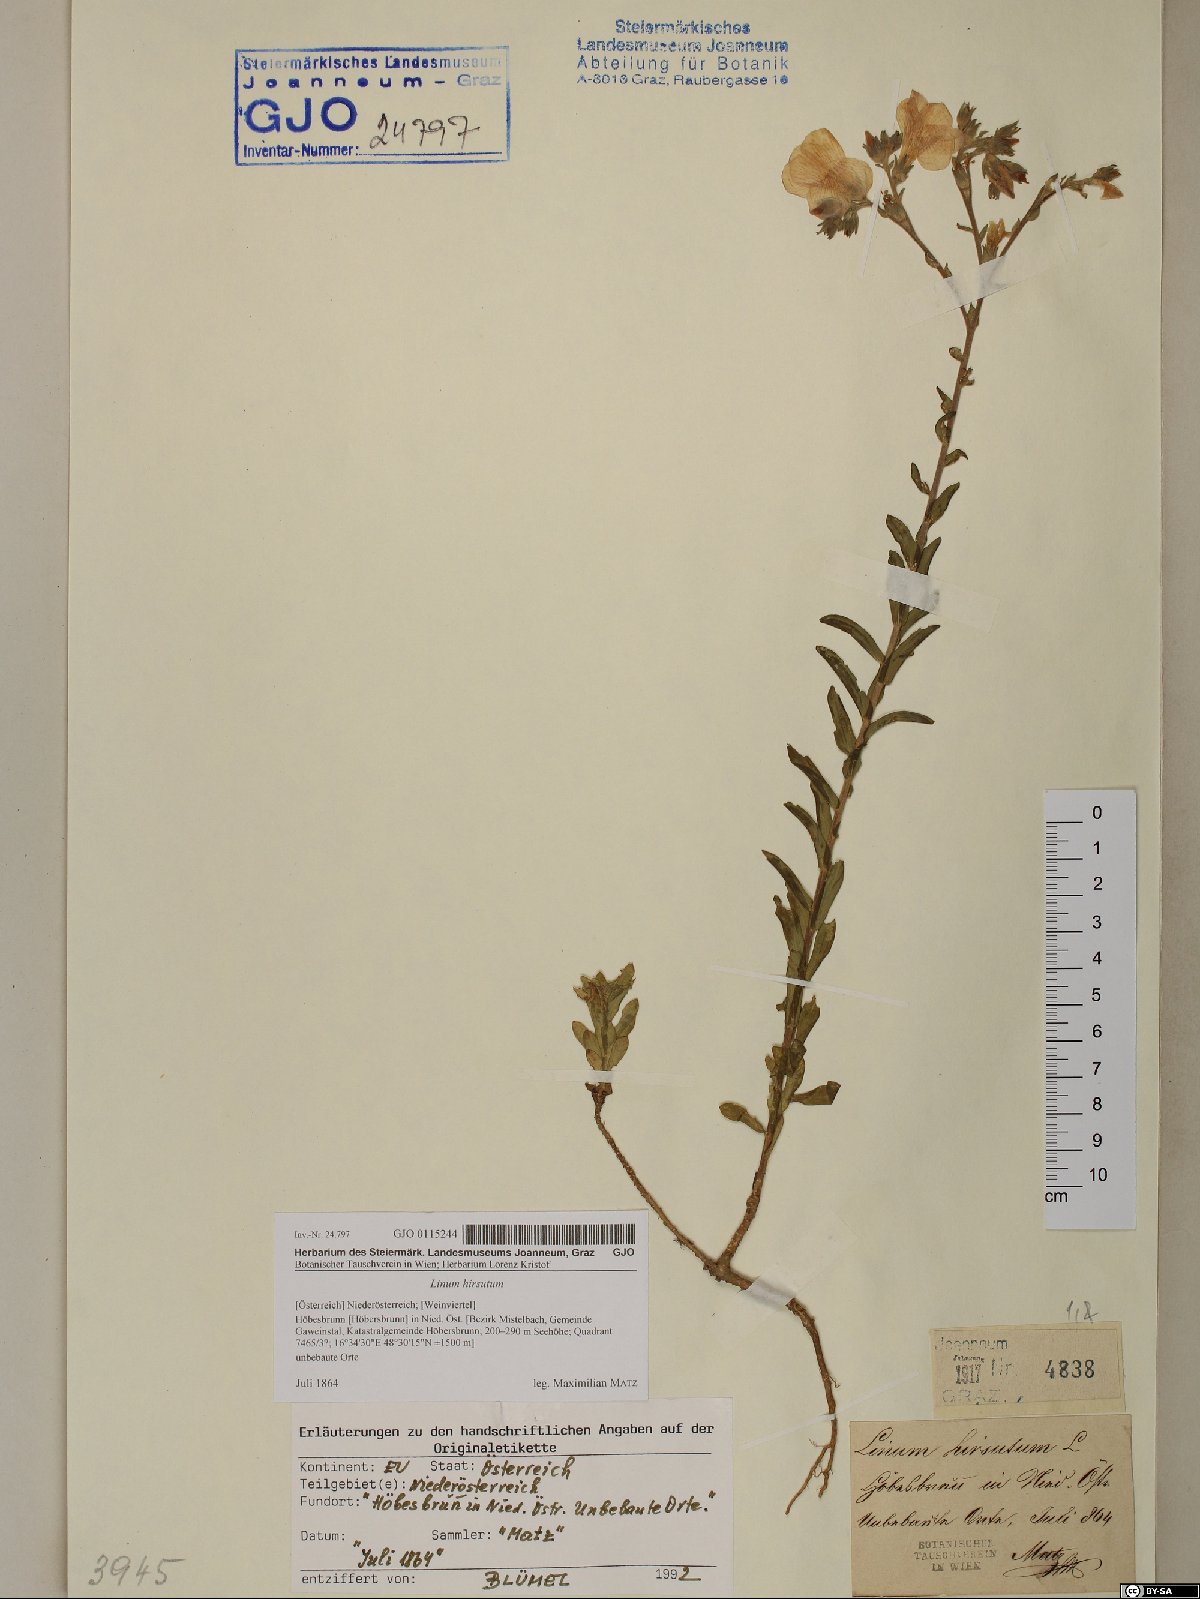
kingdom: Plantae
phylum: Tracheophyta
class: Magnoliopsida
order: Malpighiales
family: Linaceae
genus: Linum
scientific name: Linum hirsutum
